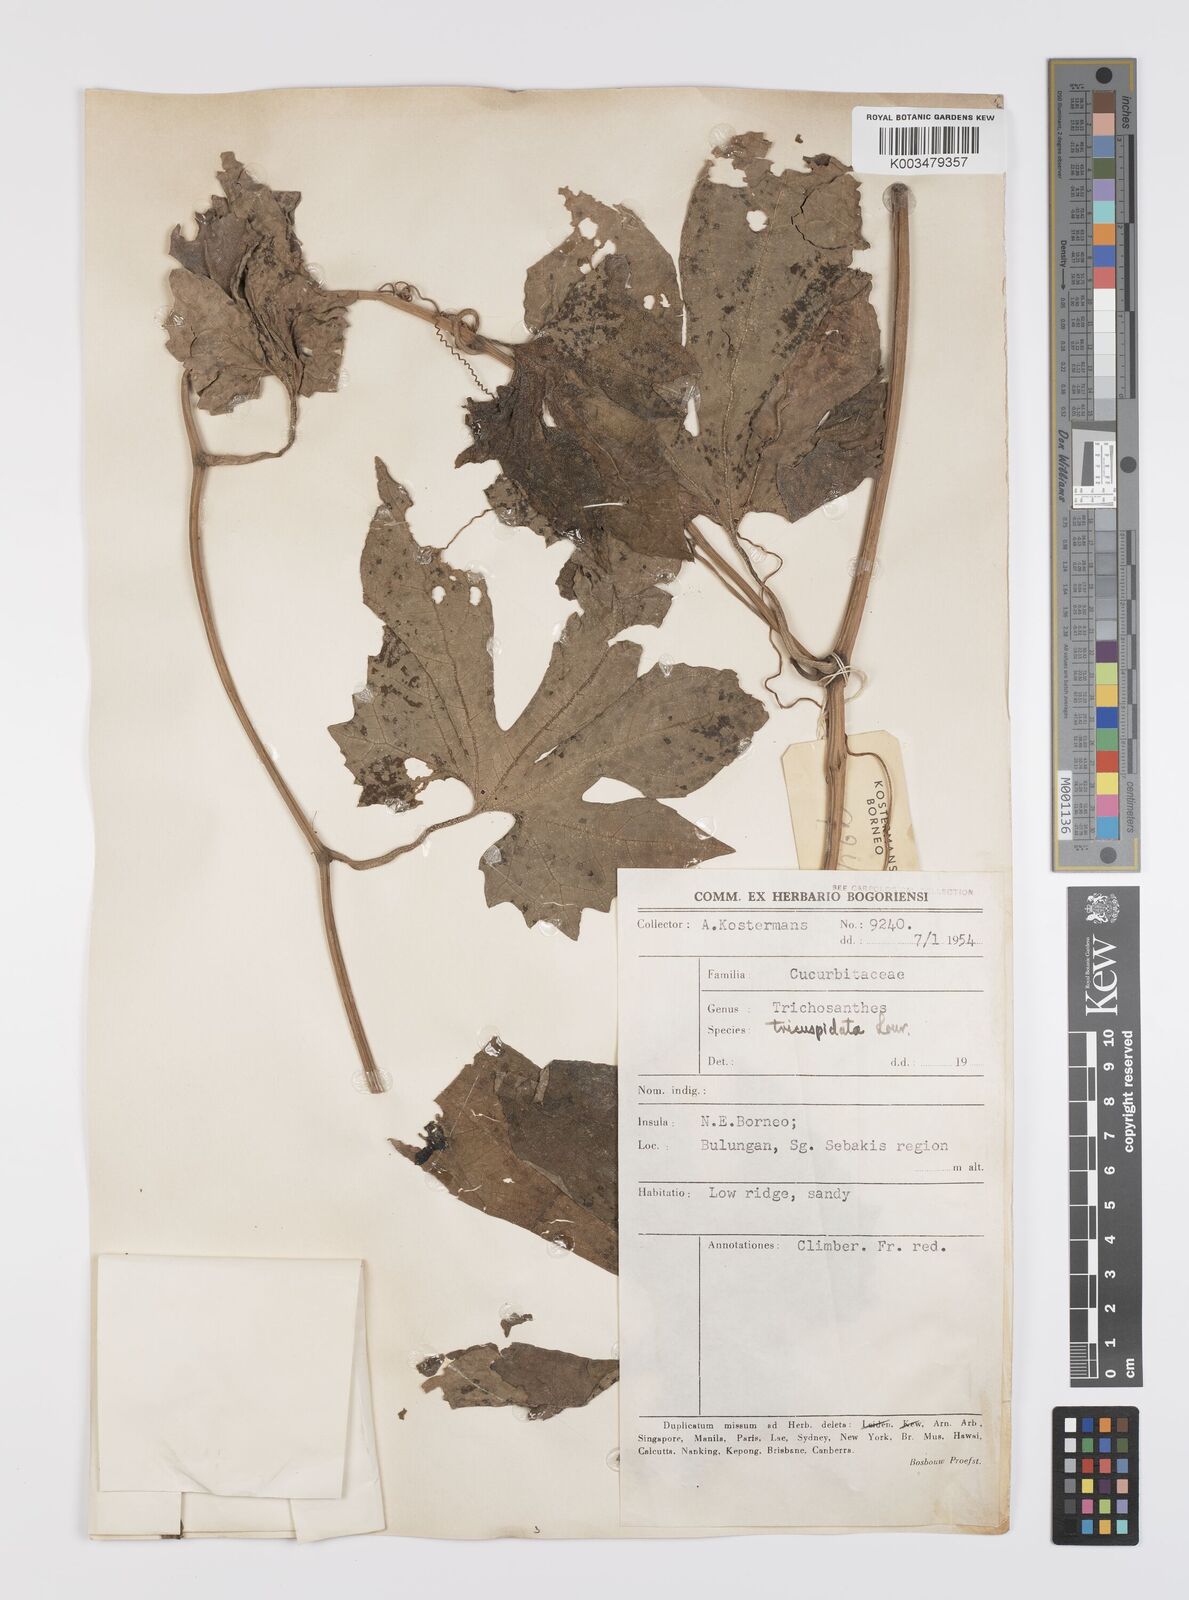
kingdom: Plantae
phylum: Tracheophyta
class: Magnoliopsida
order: Cucurbitales
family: Cucurbitaceae
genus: Trichosanthes
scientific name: Trichosanthes tricuspidata
